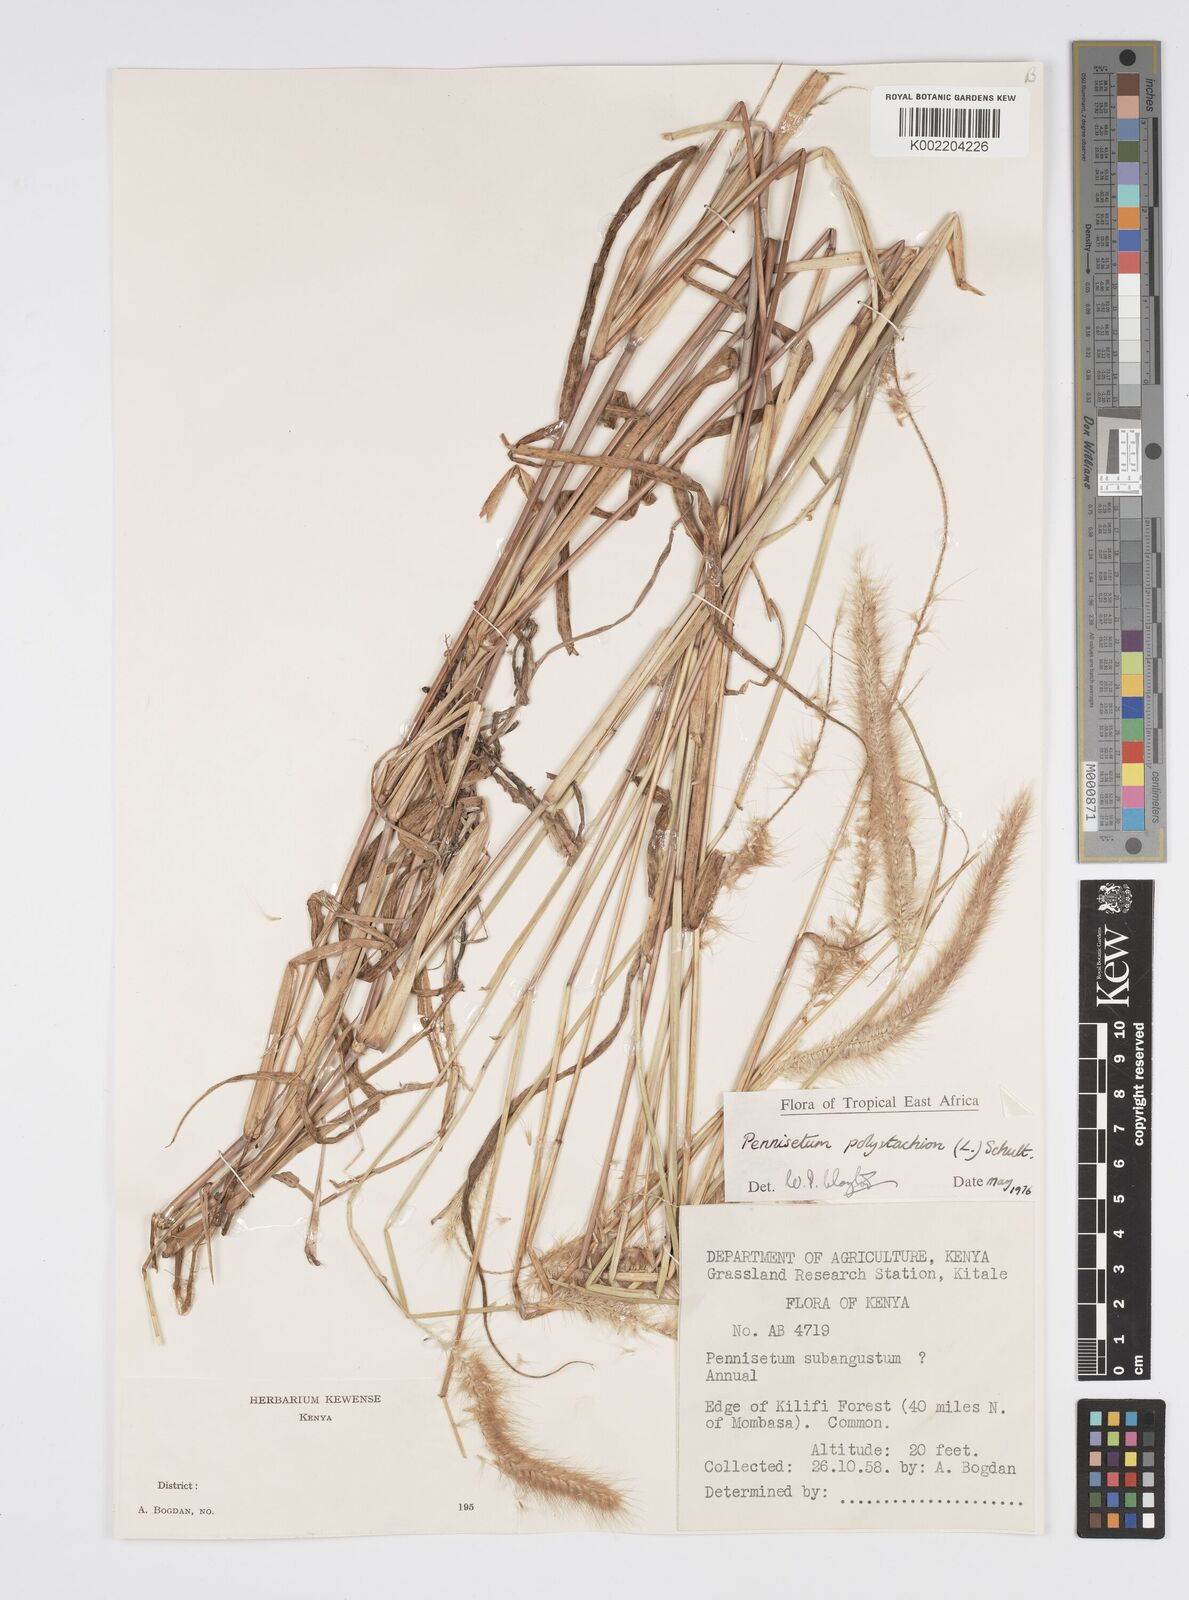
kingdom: Plantae
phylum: Tracheophyta
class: Liliopsida
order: Poales
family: Poaceae
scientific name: Poaceae
